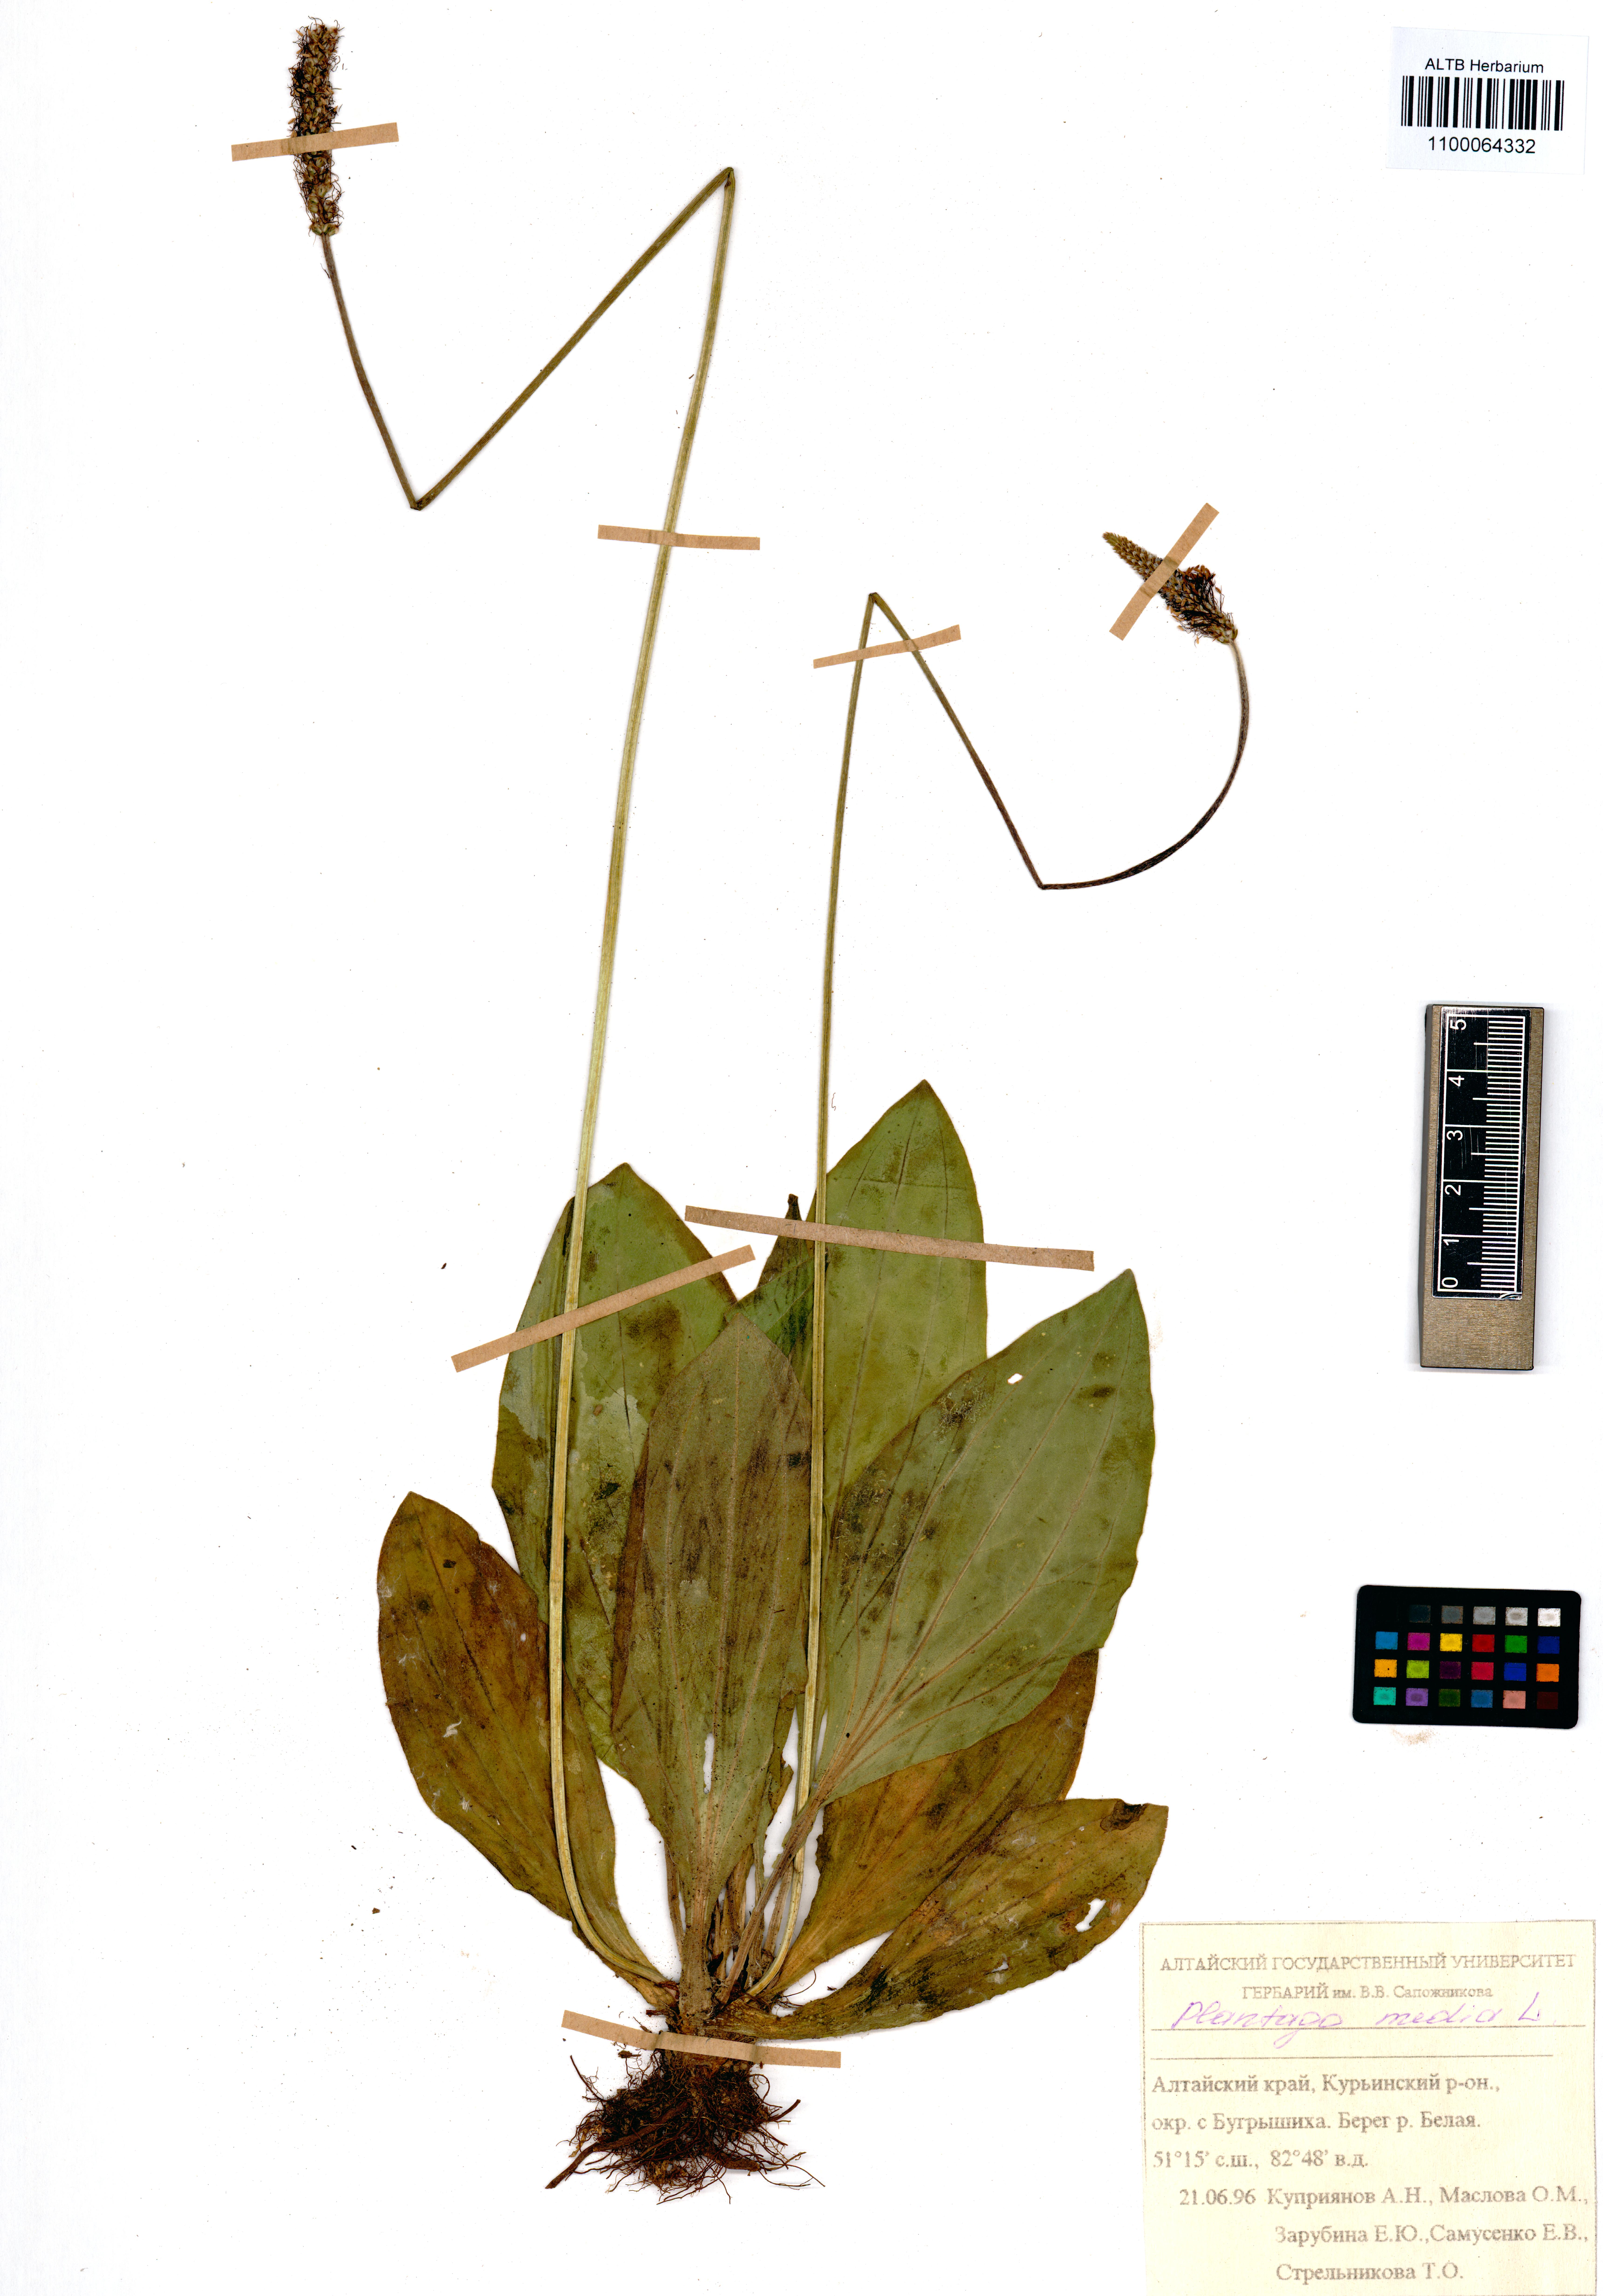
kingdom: Plantae
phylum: Tracheophyta
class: Magnoliopsida
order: Lamiales
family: Plantaginaceae
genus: Plantago
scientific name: Plantago media
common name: Hoary plantain
